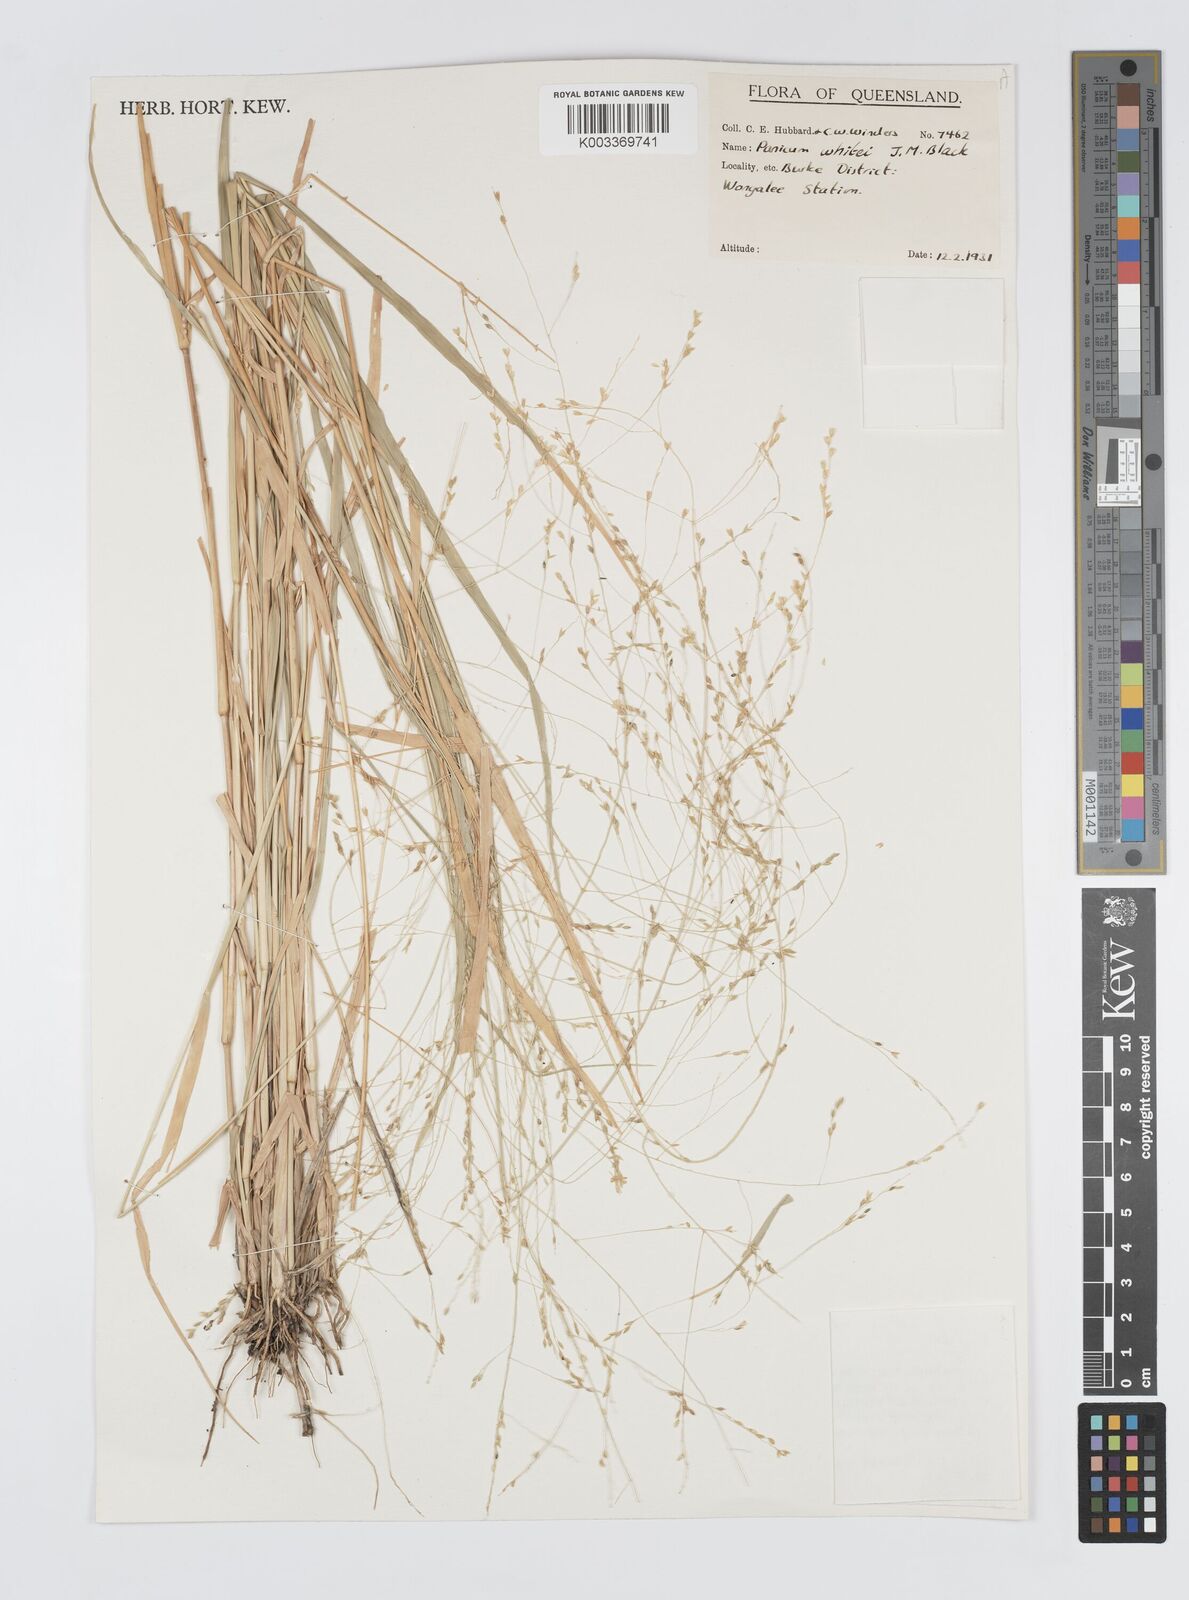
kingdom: Plantae
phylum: Tracheophyta
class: Liliopsida
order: Poales
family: Poaceae
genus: Panicum
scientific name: Panicum laevinode
